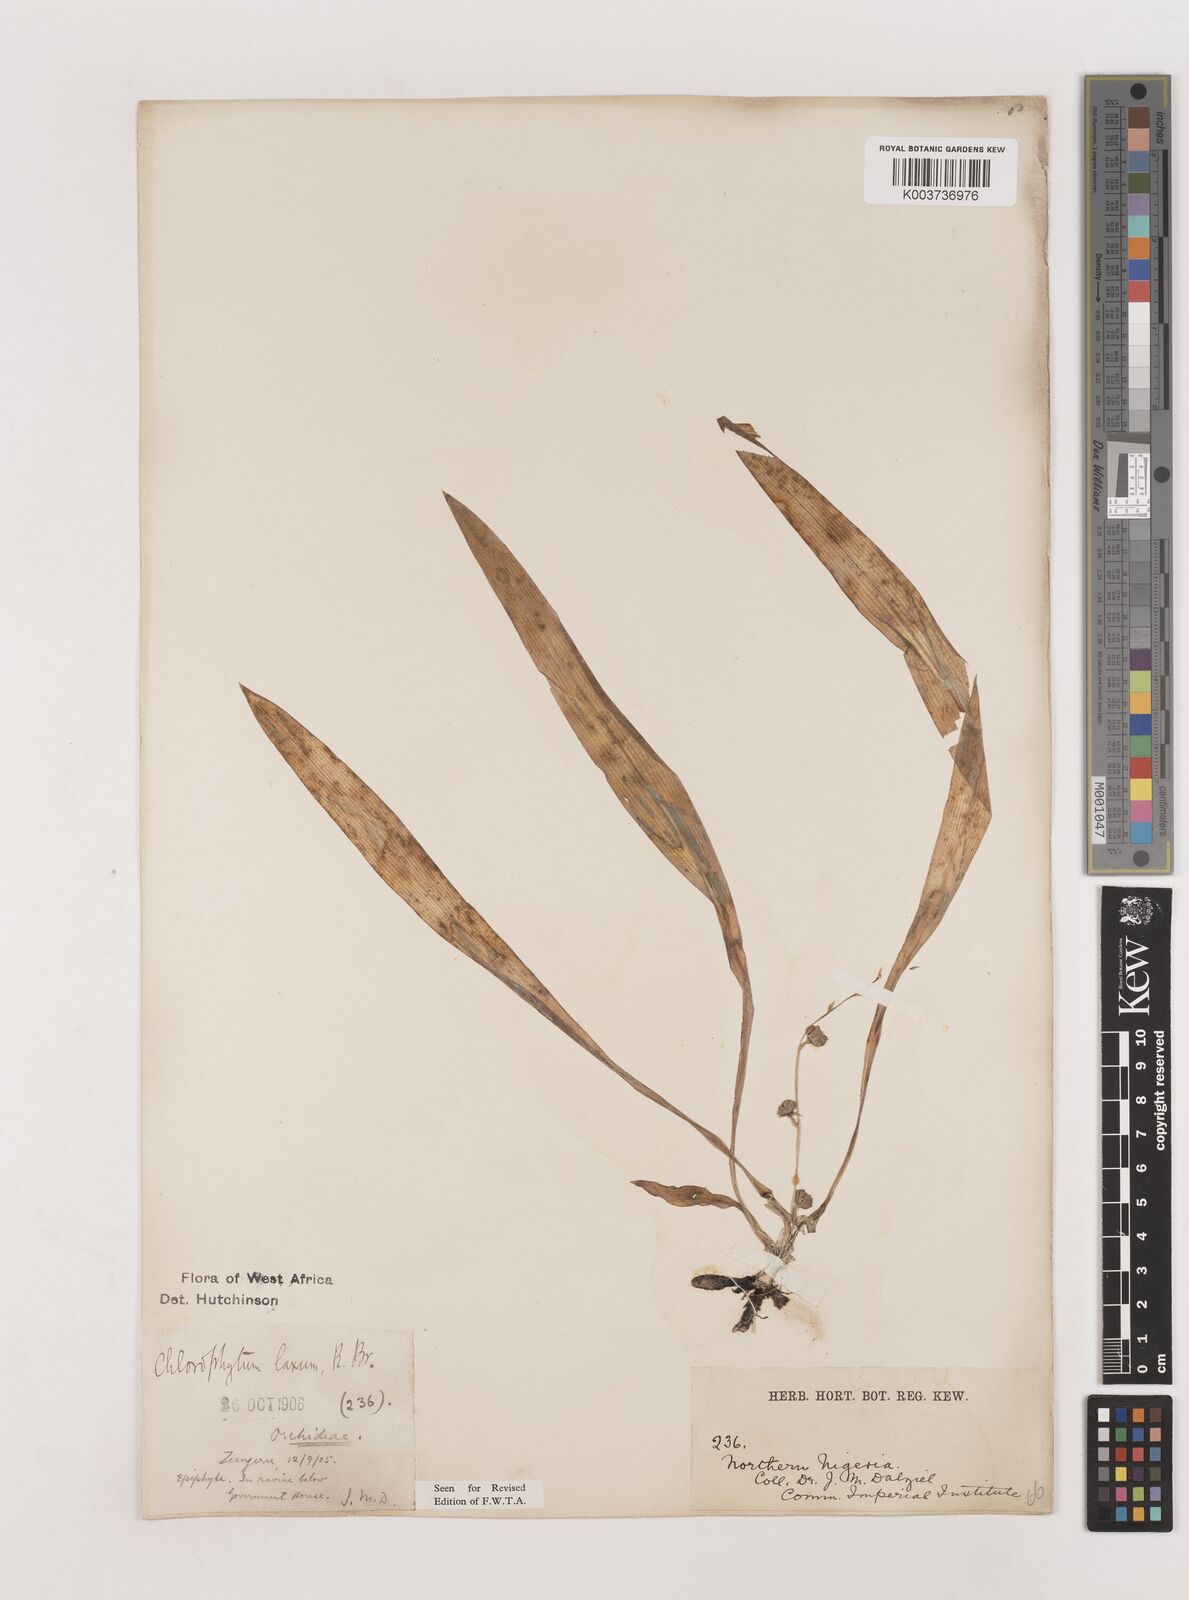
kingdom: Plantae
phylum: Tracheophyta
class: Liliopsida
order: Asparagales
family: Asparagaceae
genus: Chlorophytum
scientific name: Chlorophytum laxum
